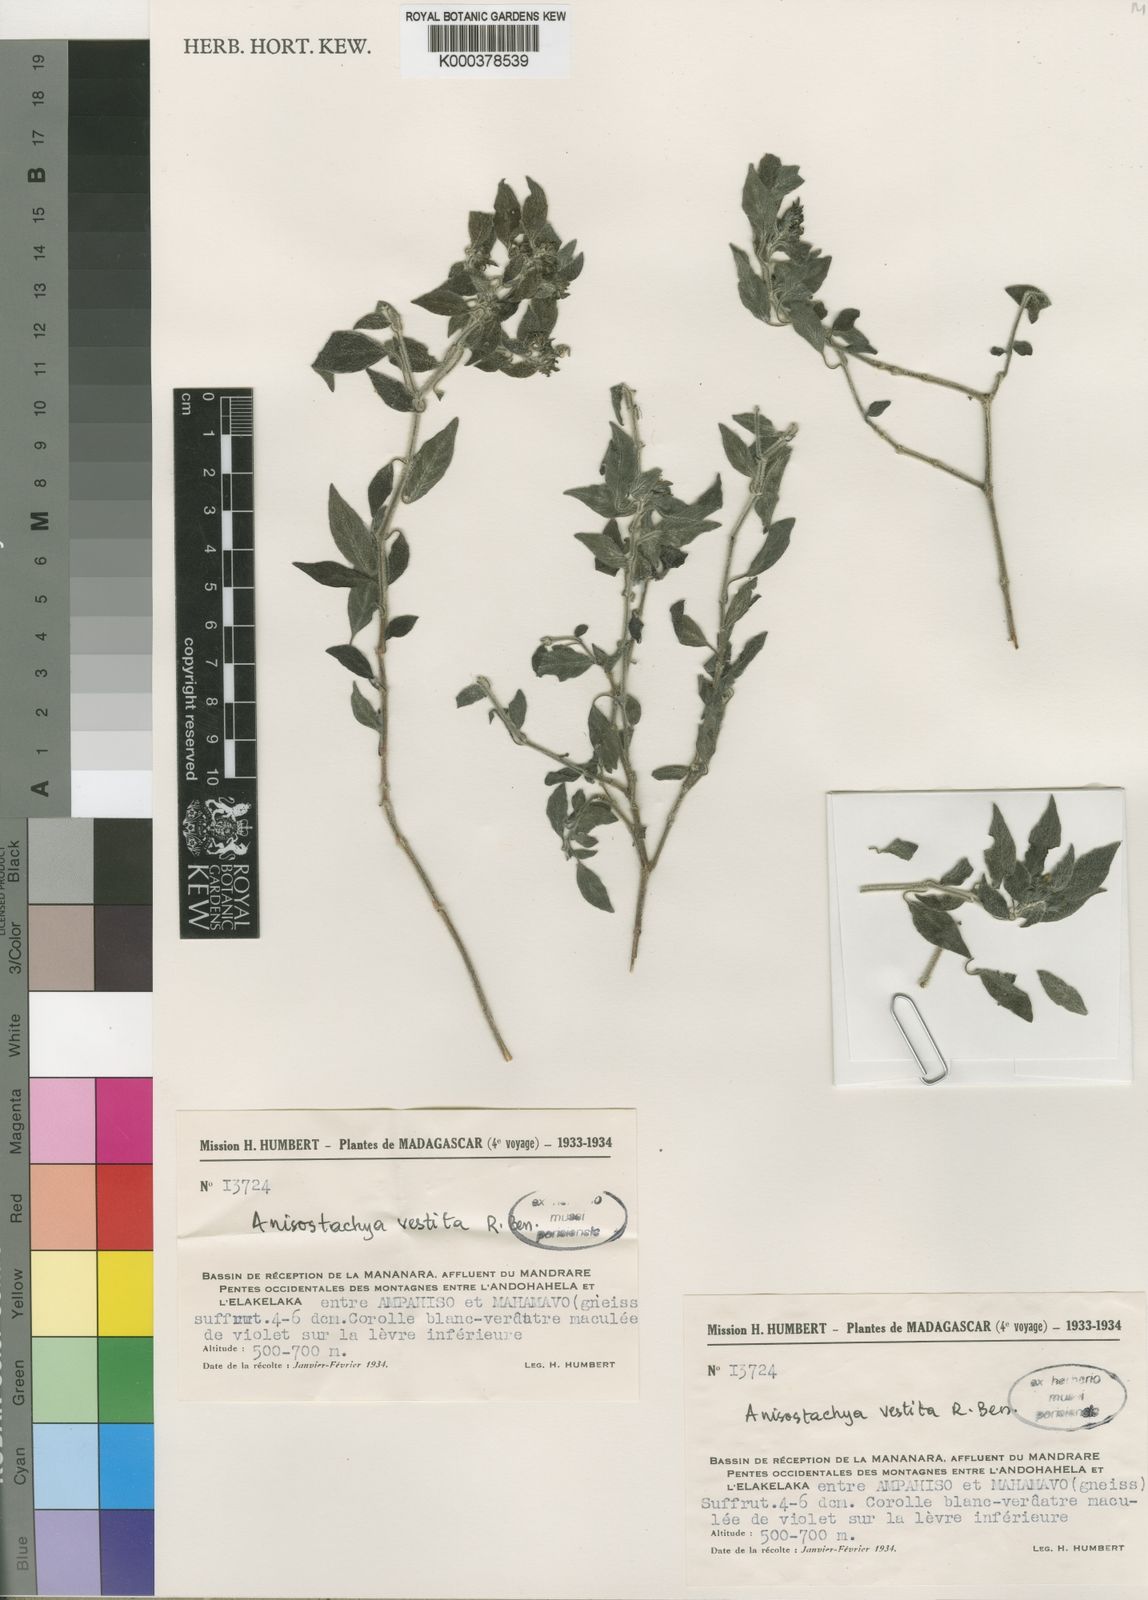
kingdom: Plantae
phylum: Tracheophyta
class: Magnoliopsida
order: Lamiales
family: Acanthaceae
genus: Nelsonia
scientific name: Nelsonia canescens
